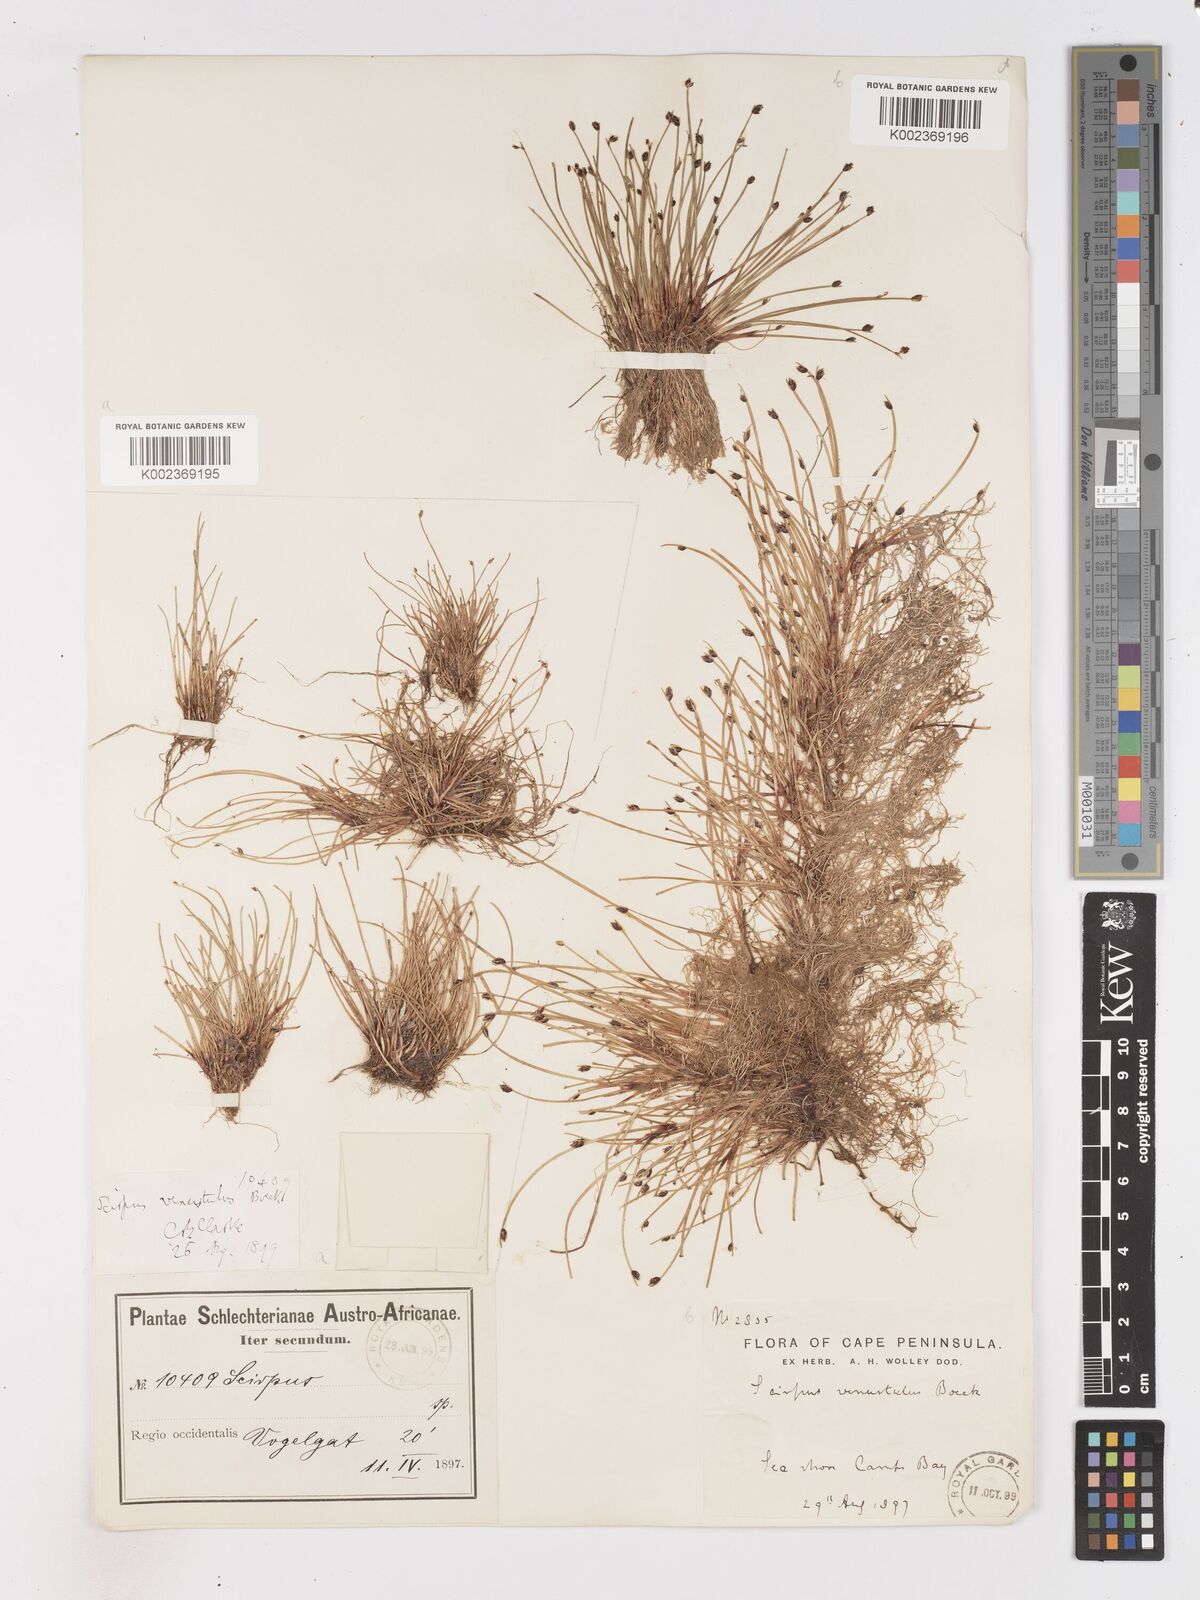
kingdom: Plantae
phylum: Tracheophyta
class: Liliopsida
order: Poales
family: Cyperaceae
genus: Isolepis
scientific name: Isolepis venustula
